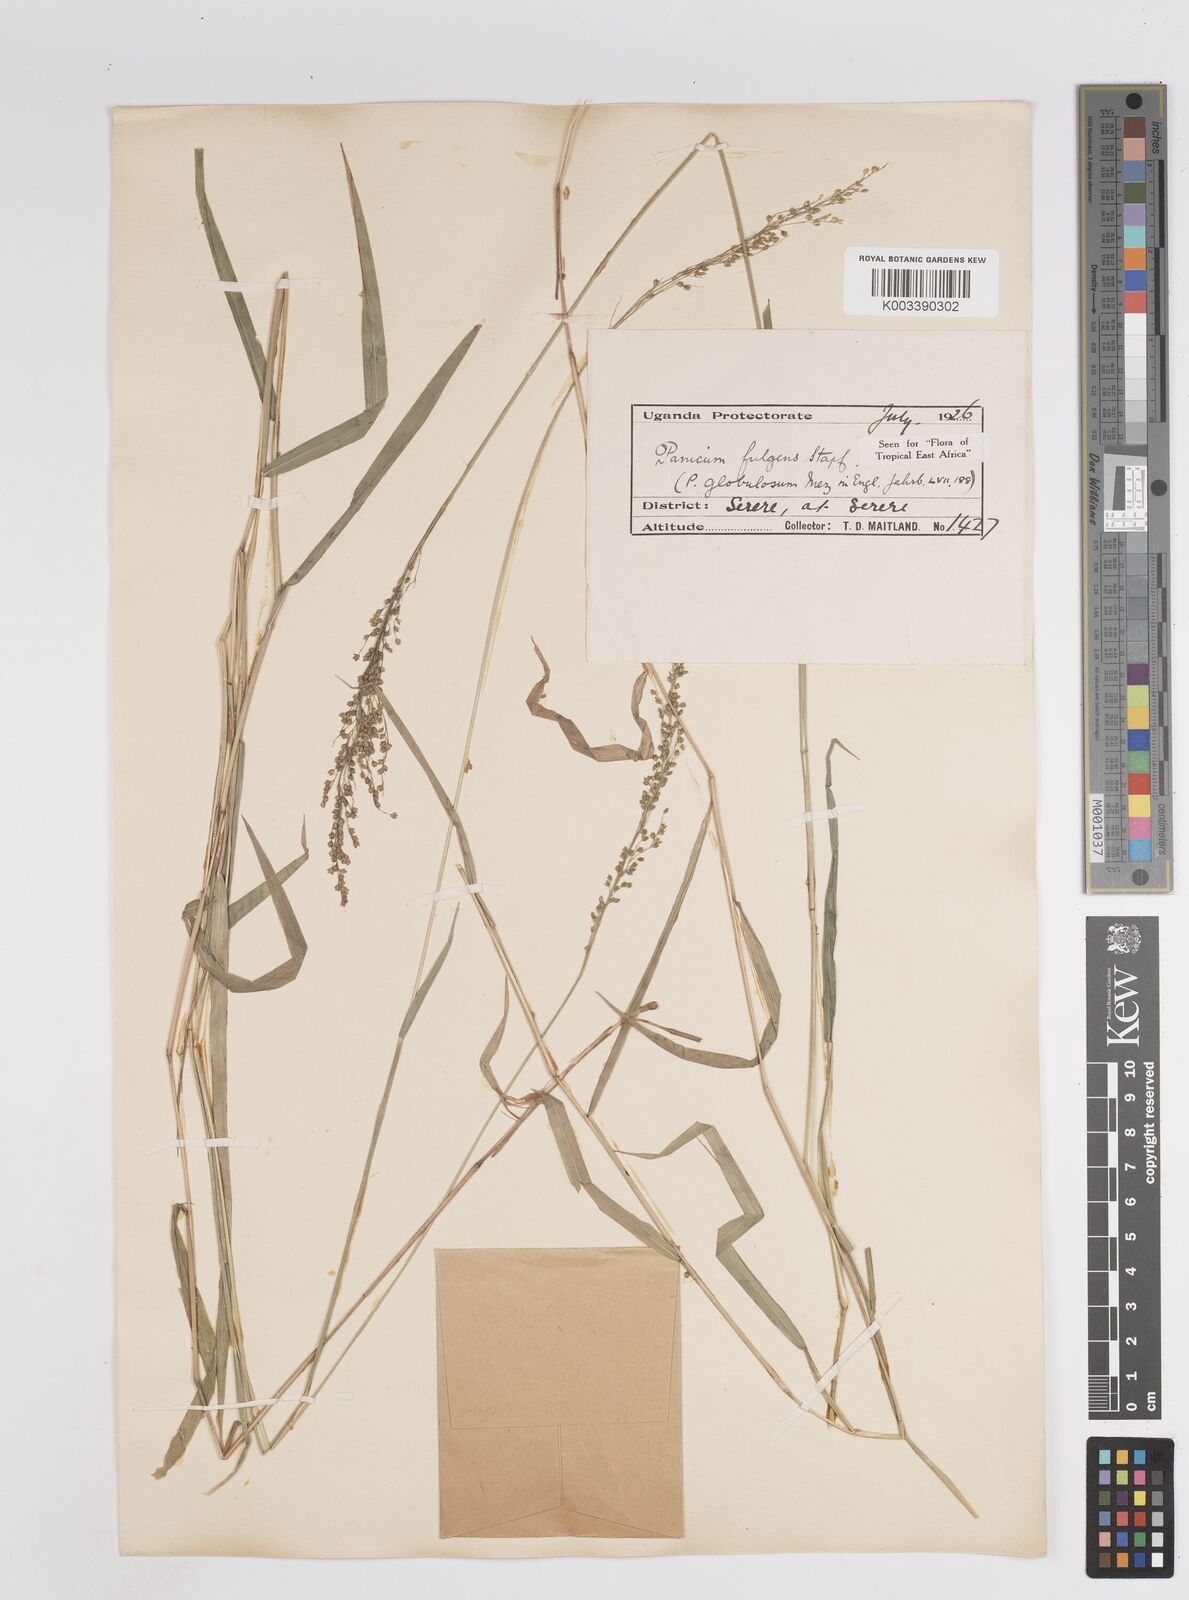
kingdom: Plantae
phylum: Tracheophyta
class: Liliopsida
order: Poales
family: Poaceae
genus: Trichanthecium
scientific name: Trichanthecium nervatum
